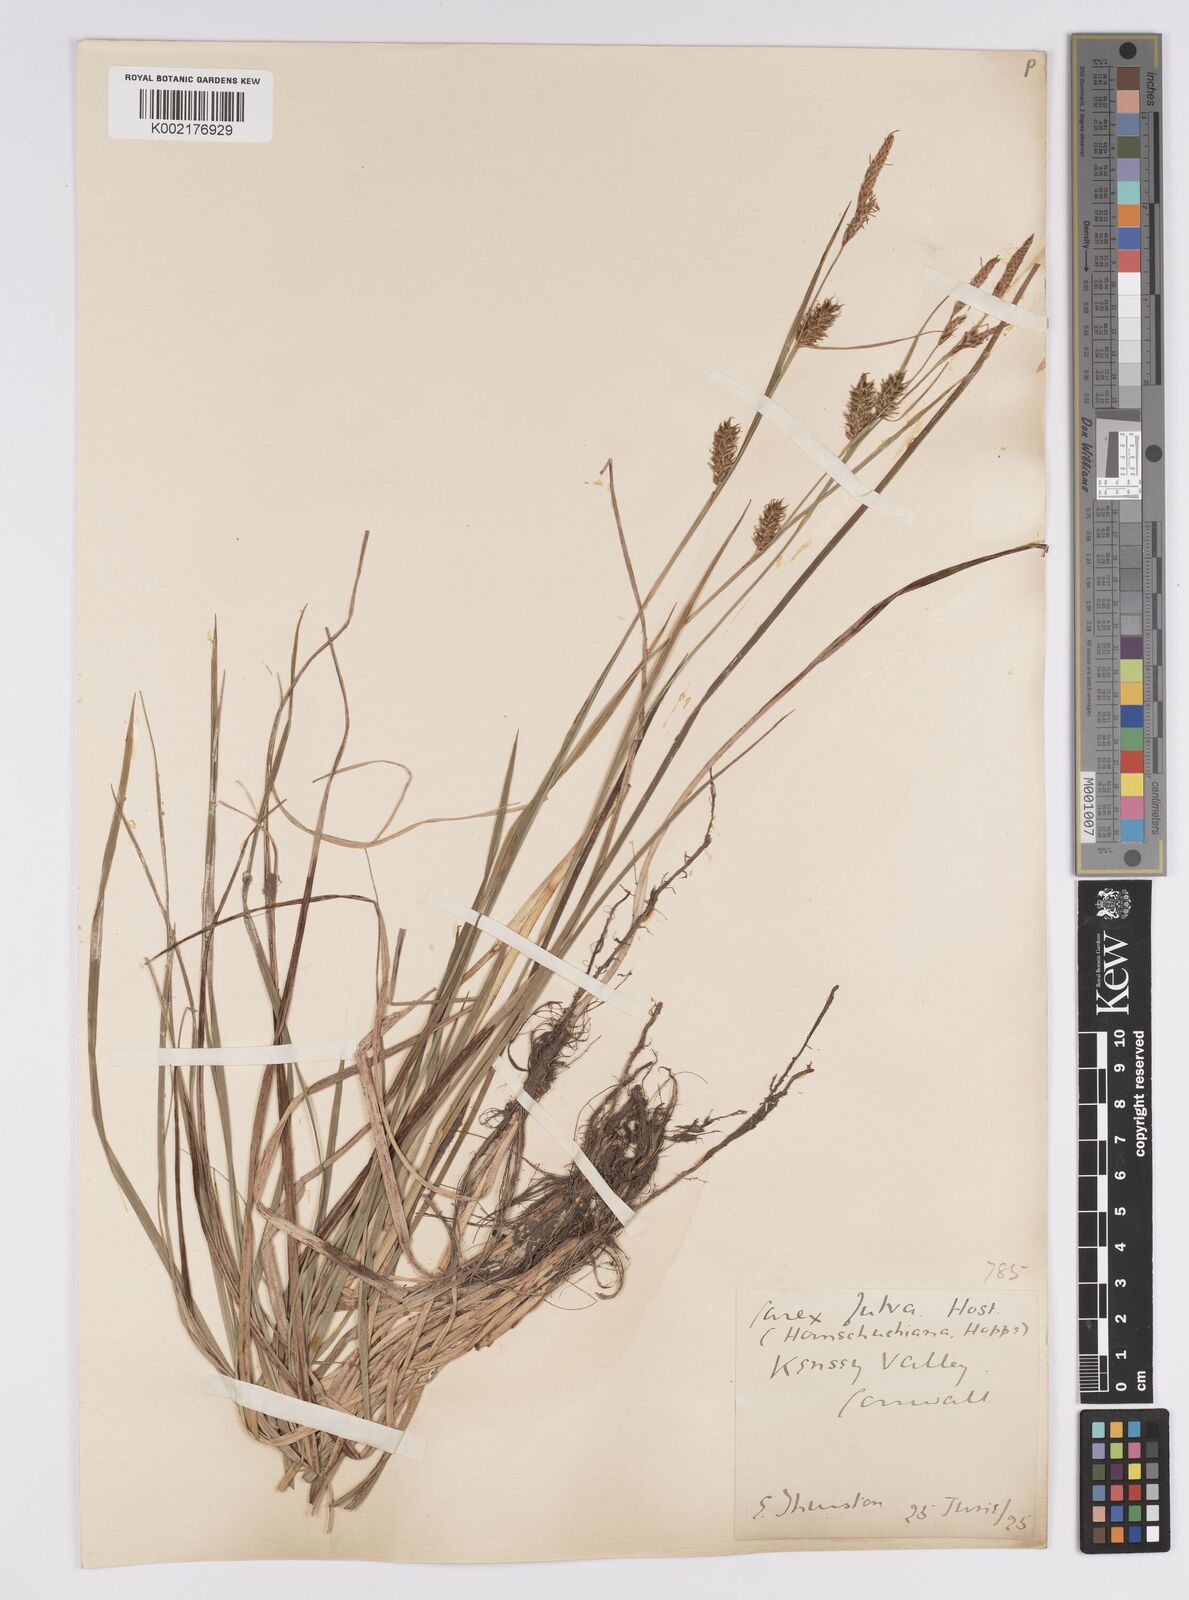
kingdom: Plantae
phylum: Tracheophyta
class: Liliopsida
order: Poales
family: Cyperaceae
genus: Carex
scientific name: Carex hostiana
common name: Tawny sedge
